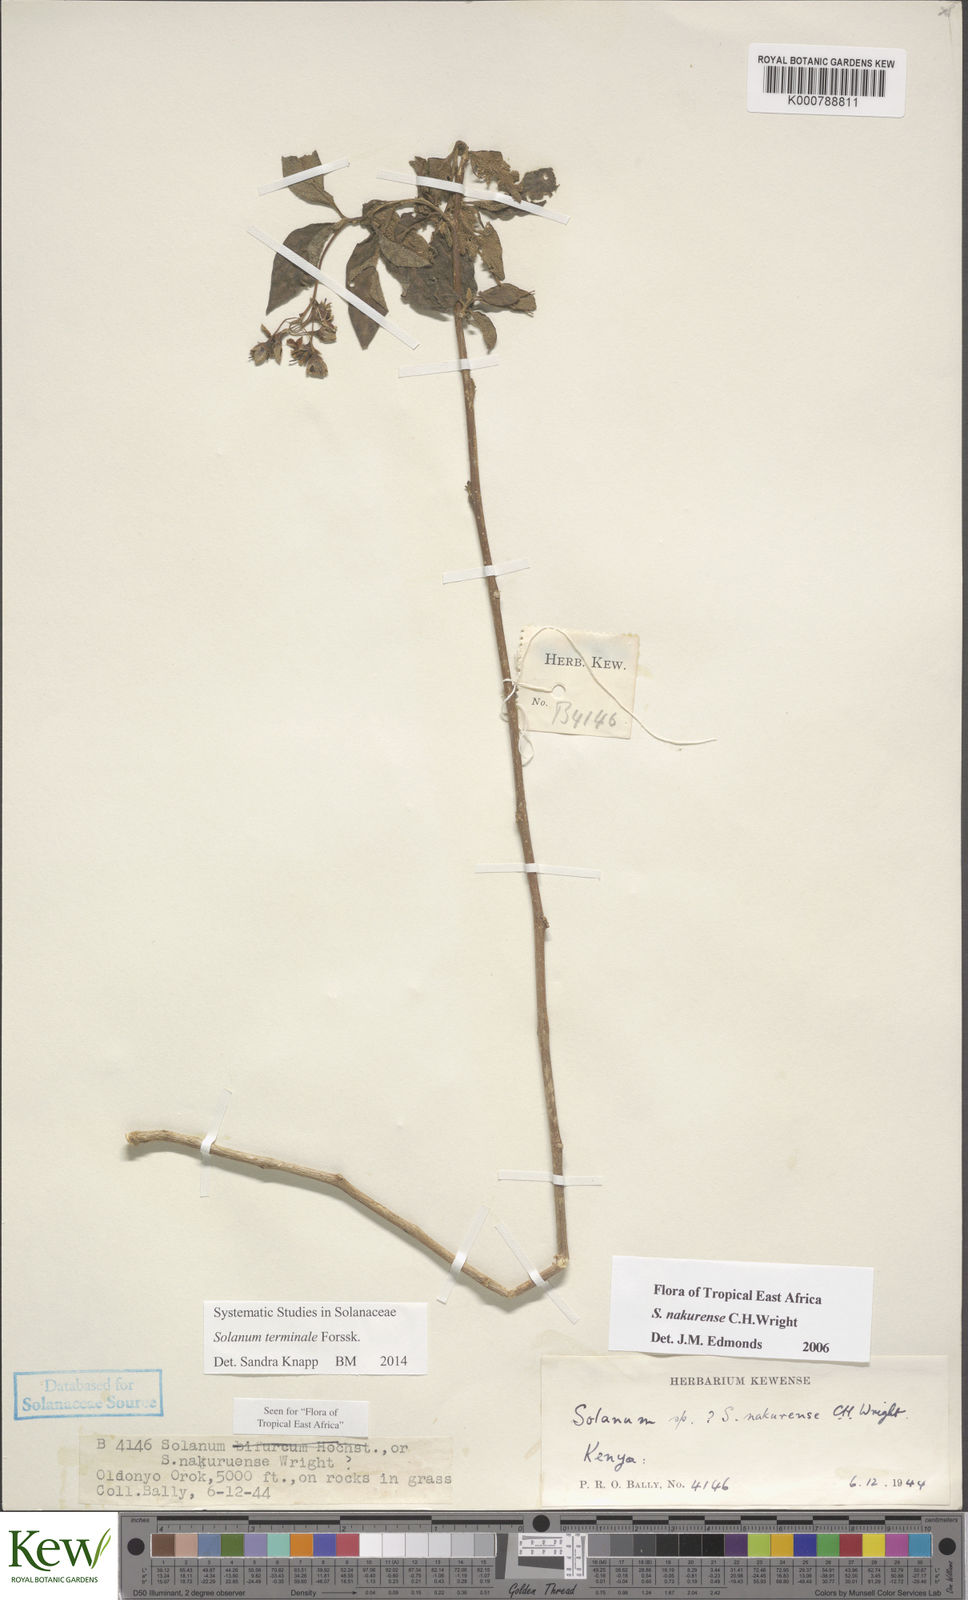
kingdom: Plantae
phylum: Tracheophyta
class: Magnoliopsida
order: Solanales
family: Solanaceae
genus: Solanum
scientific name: Solanum nakurense
